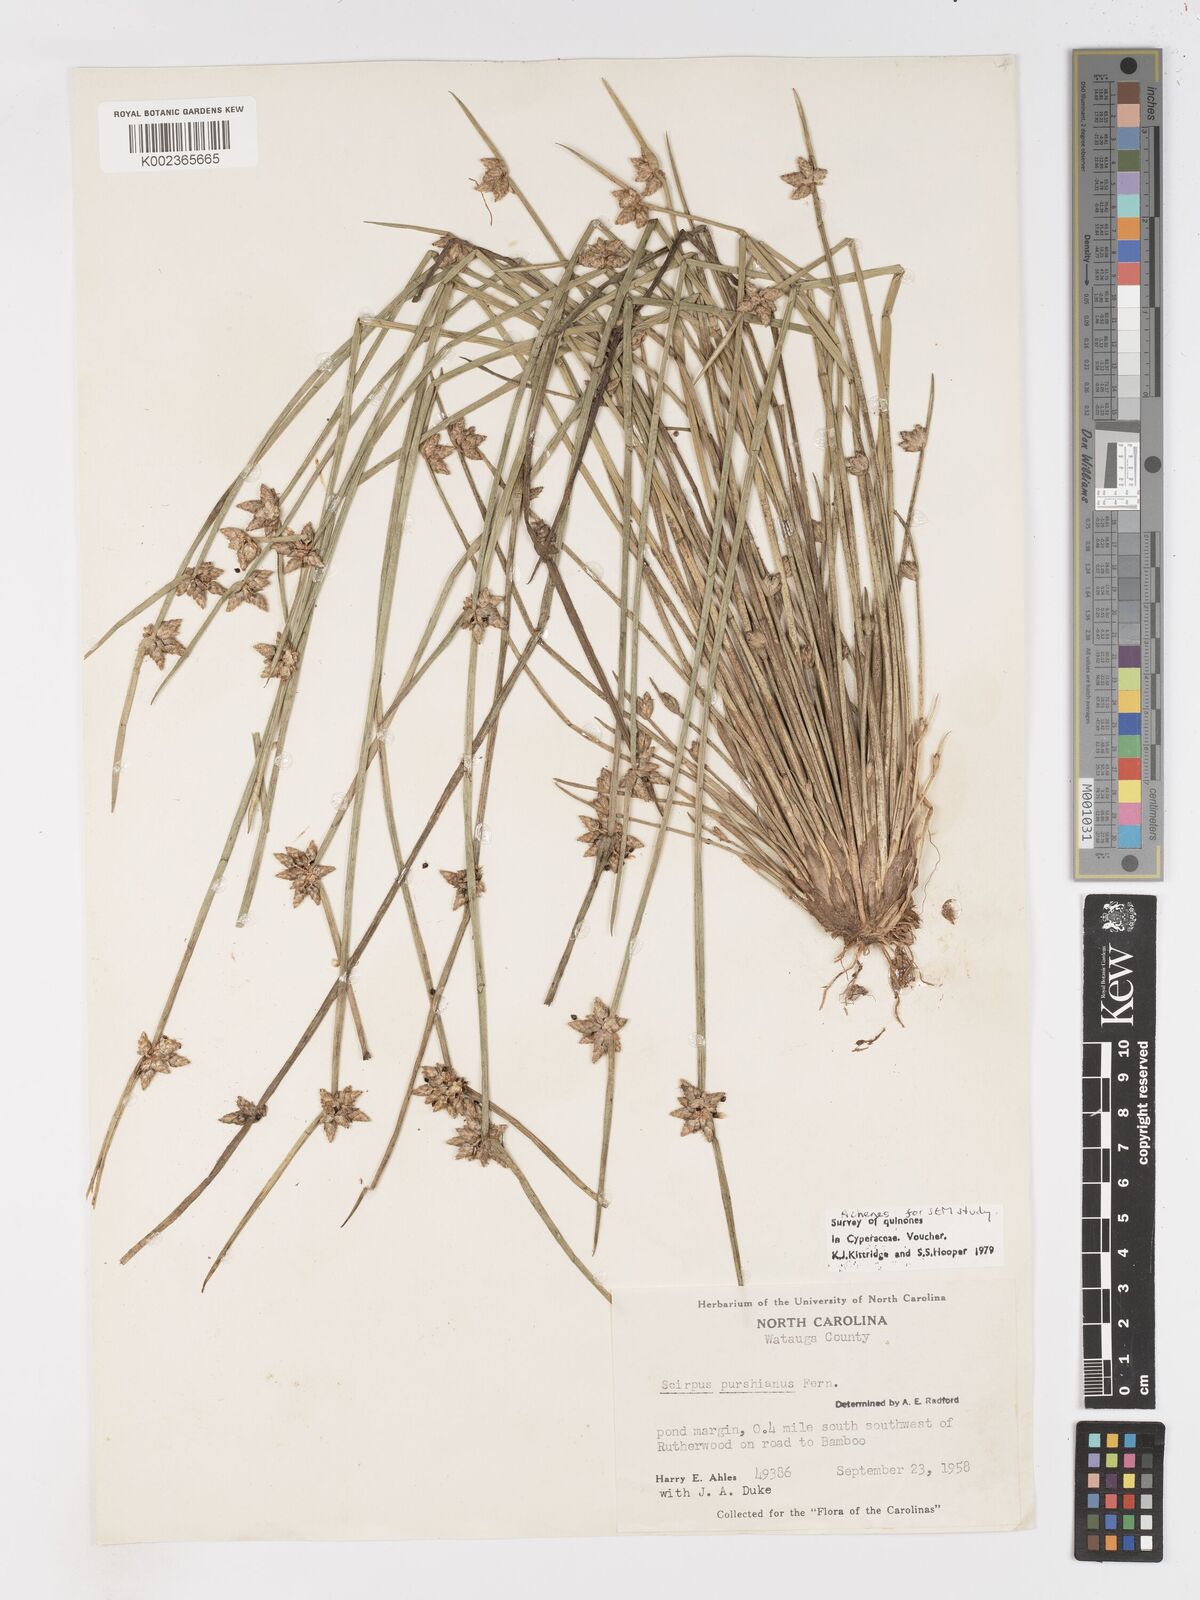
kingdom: Plantae
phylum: Tracheophyta
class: Liliopsida
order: Poales
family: Cyperaceae
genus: Schoenoplectiella
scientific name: Schoenoplectiella purshiana
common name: Weak-stalked bulrush
